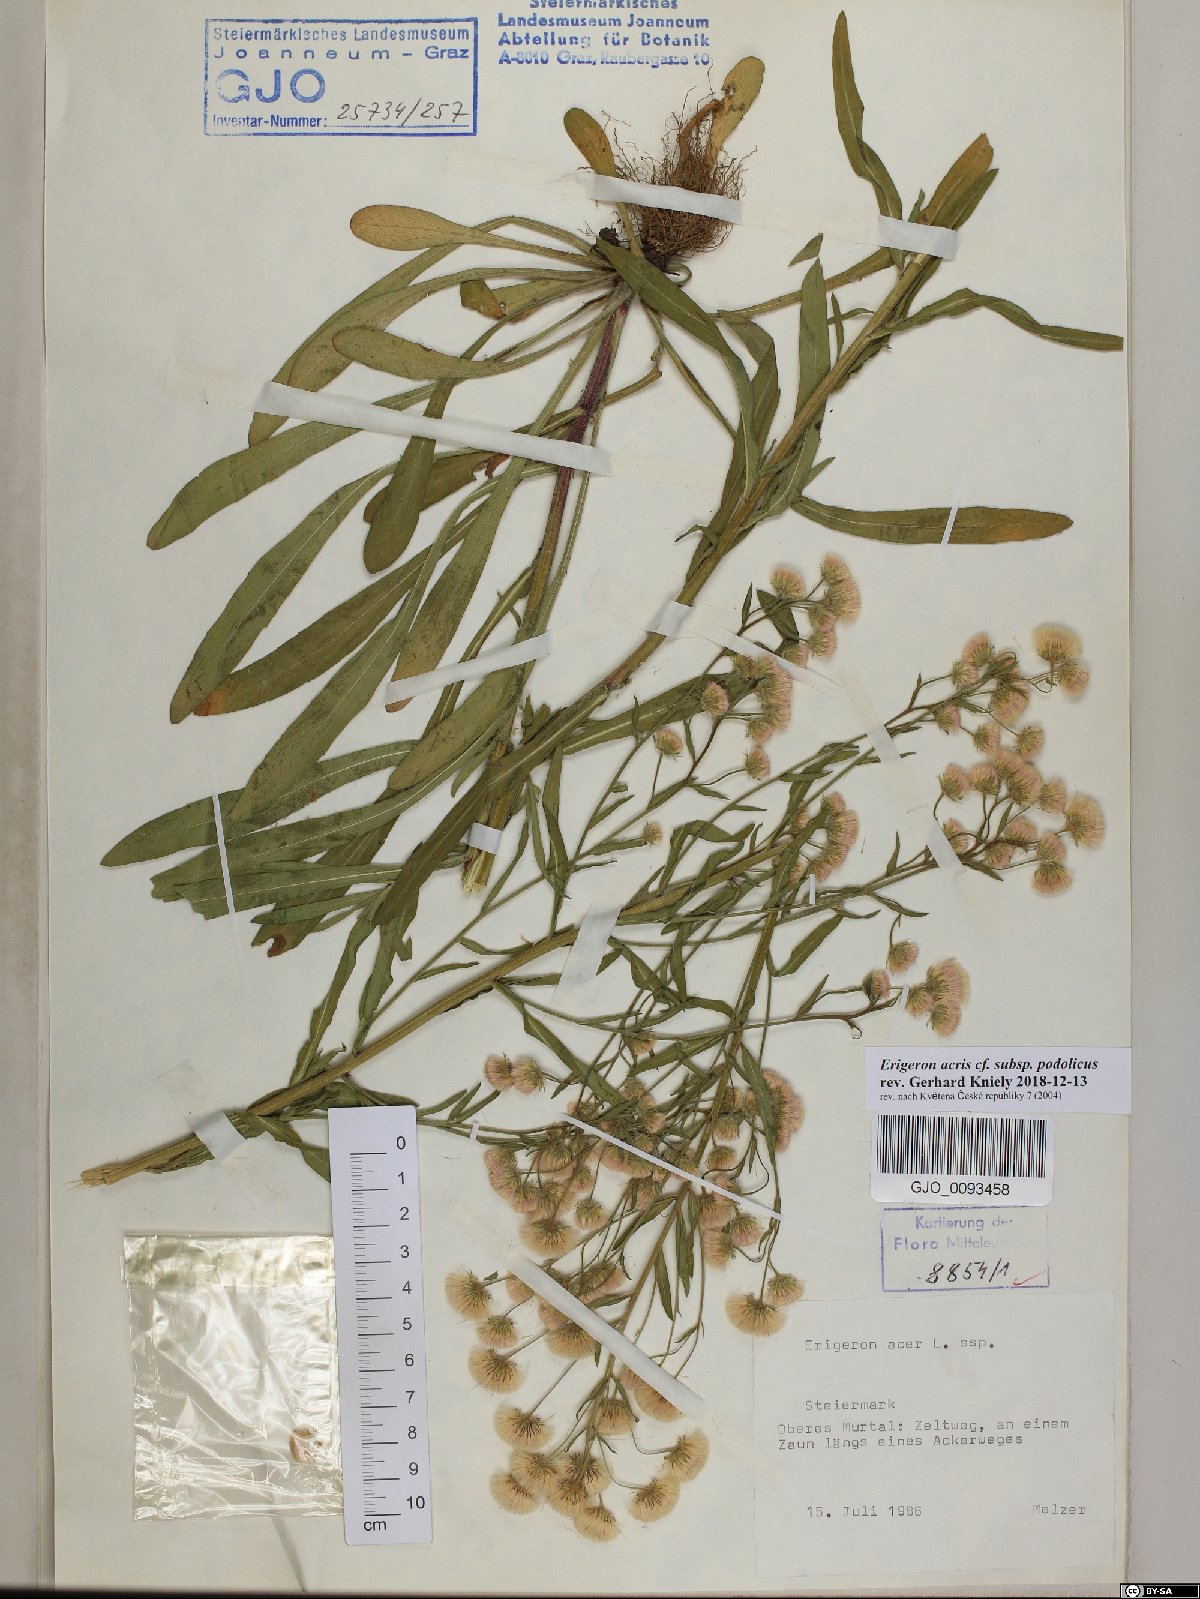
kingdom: Plantae
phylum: Tracheophyta
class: Magnoliopsida
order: Asterales
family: Asteraceae
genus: Erigeron
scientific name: Erigeron podolicus
